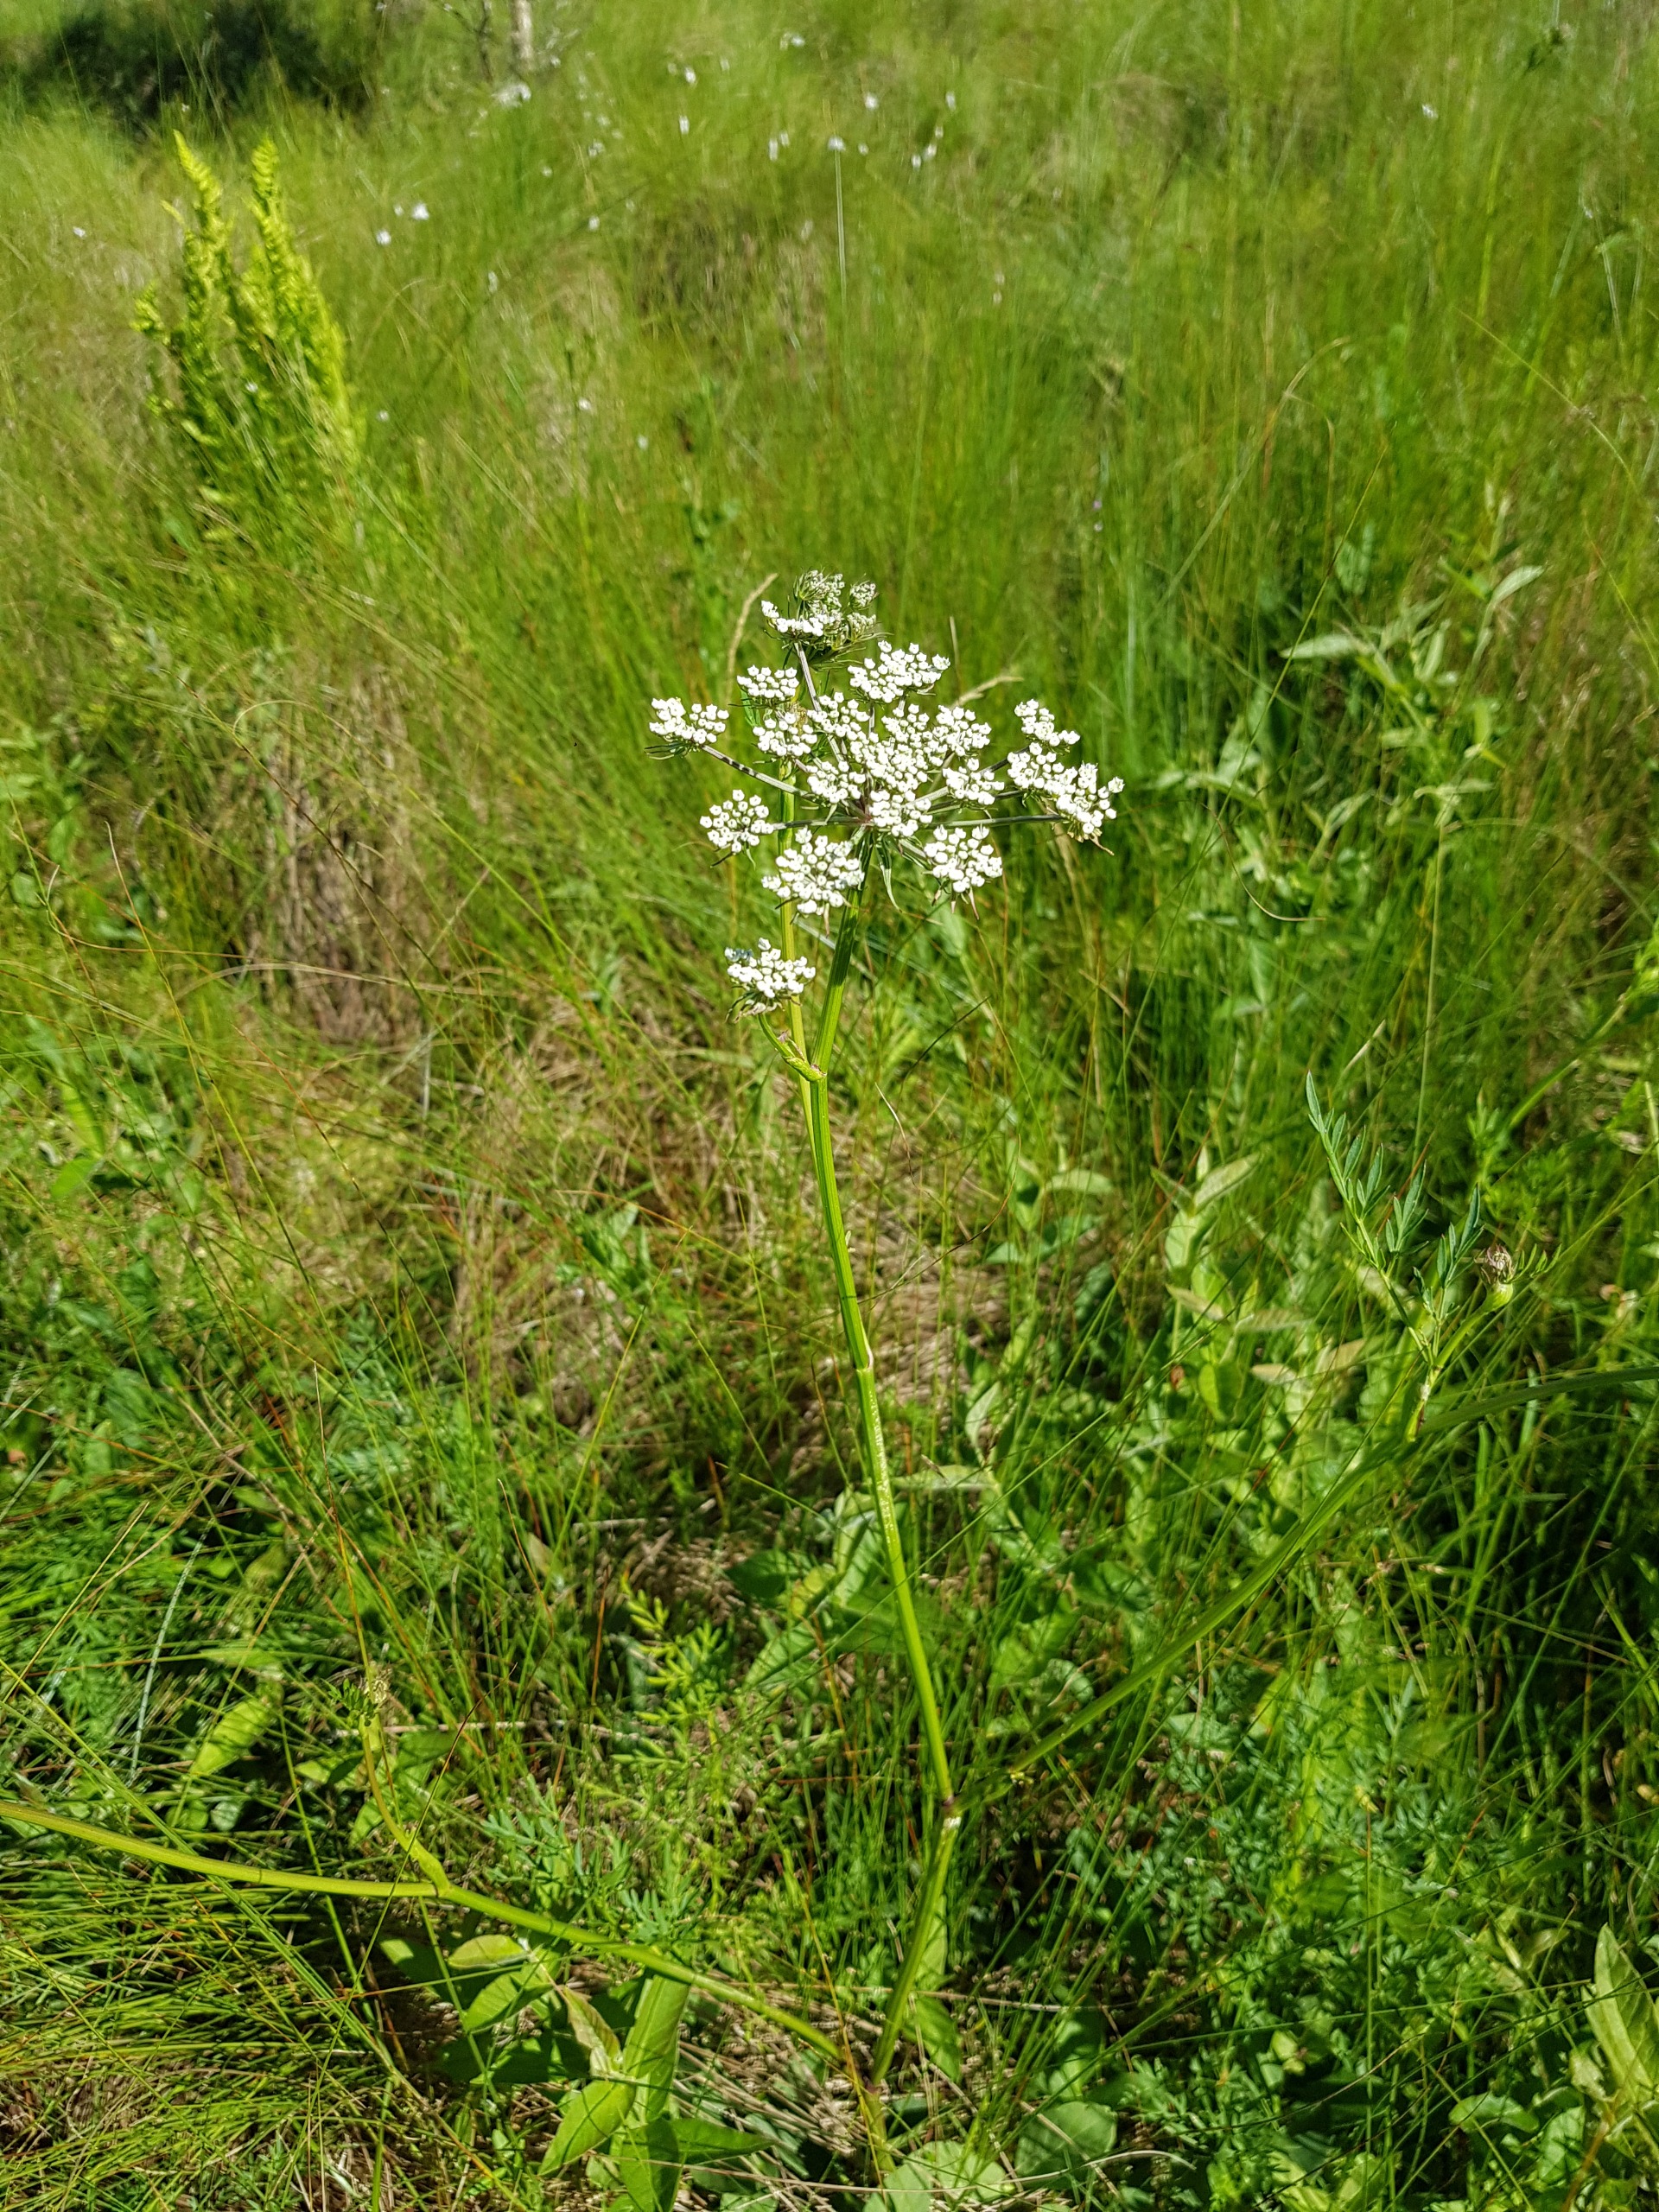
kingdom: Plantae
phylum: Tracheophyta
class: Magnoliopsida
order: Apiales
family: Apiaceae
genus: Thysselinum
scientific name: Thysselinum palustre
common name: Kær-svovlrod
